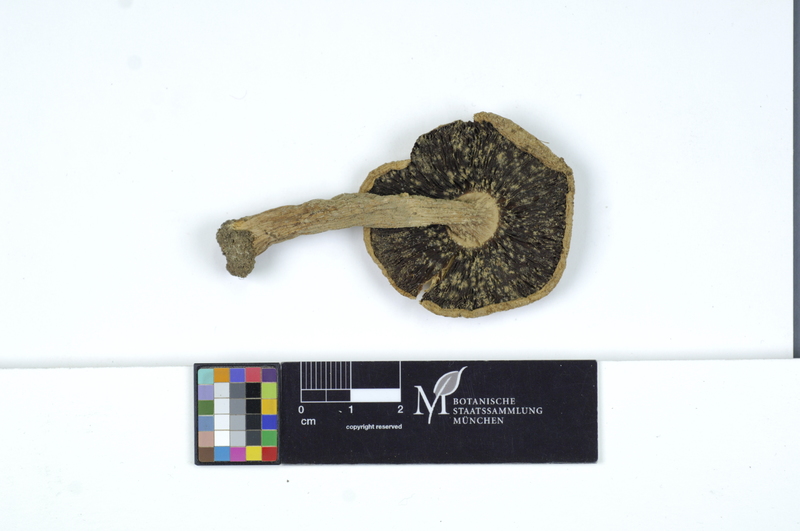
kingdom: Fungi
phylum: Basidiomycota
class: Agaricomycetes
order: Agaricales
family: Agaricaceae
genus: Agaricus
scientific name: Agaricus campestris
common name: Field mushroom
